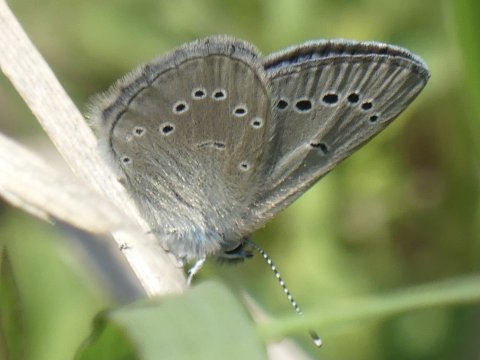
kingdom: Animalia
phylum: Arthropoda
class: Insecta
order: Lepidoptera
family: Lycaenidae
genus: Glaucopsyche
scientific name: Glaucopsyche lygdamus
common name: Silvery Blue
